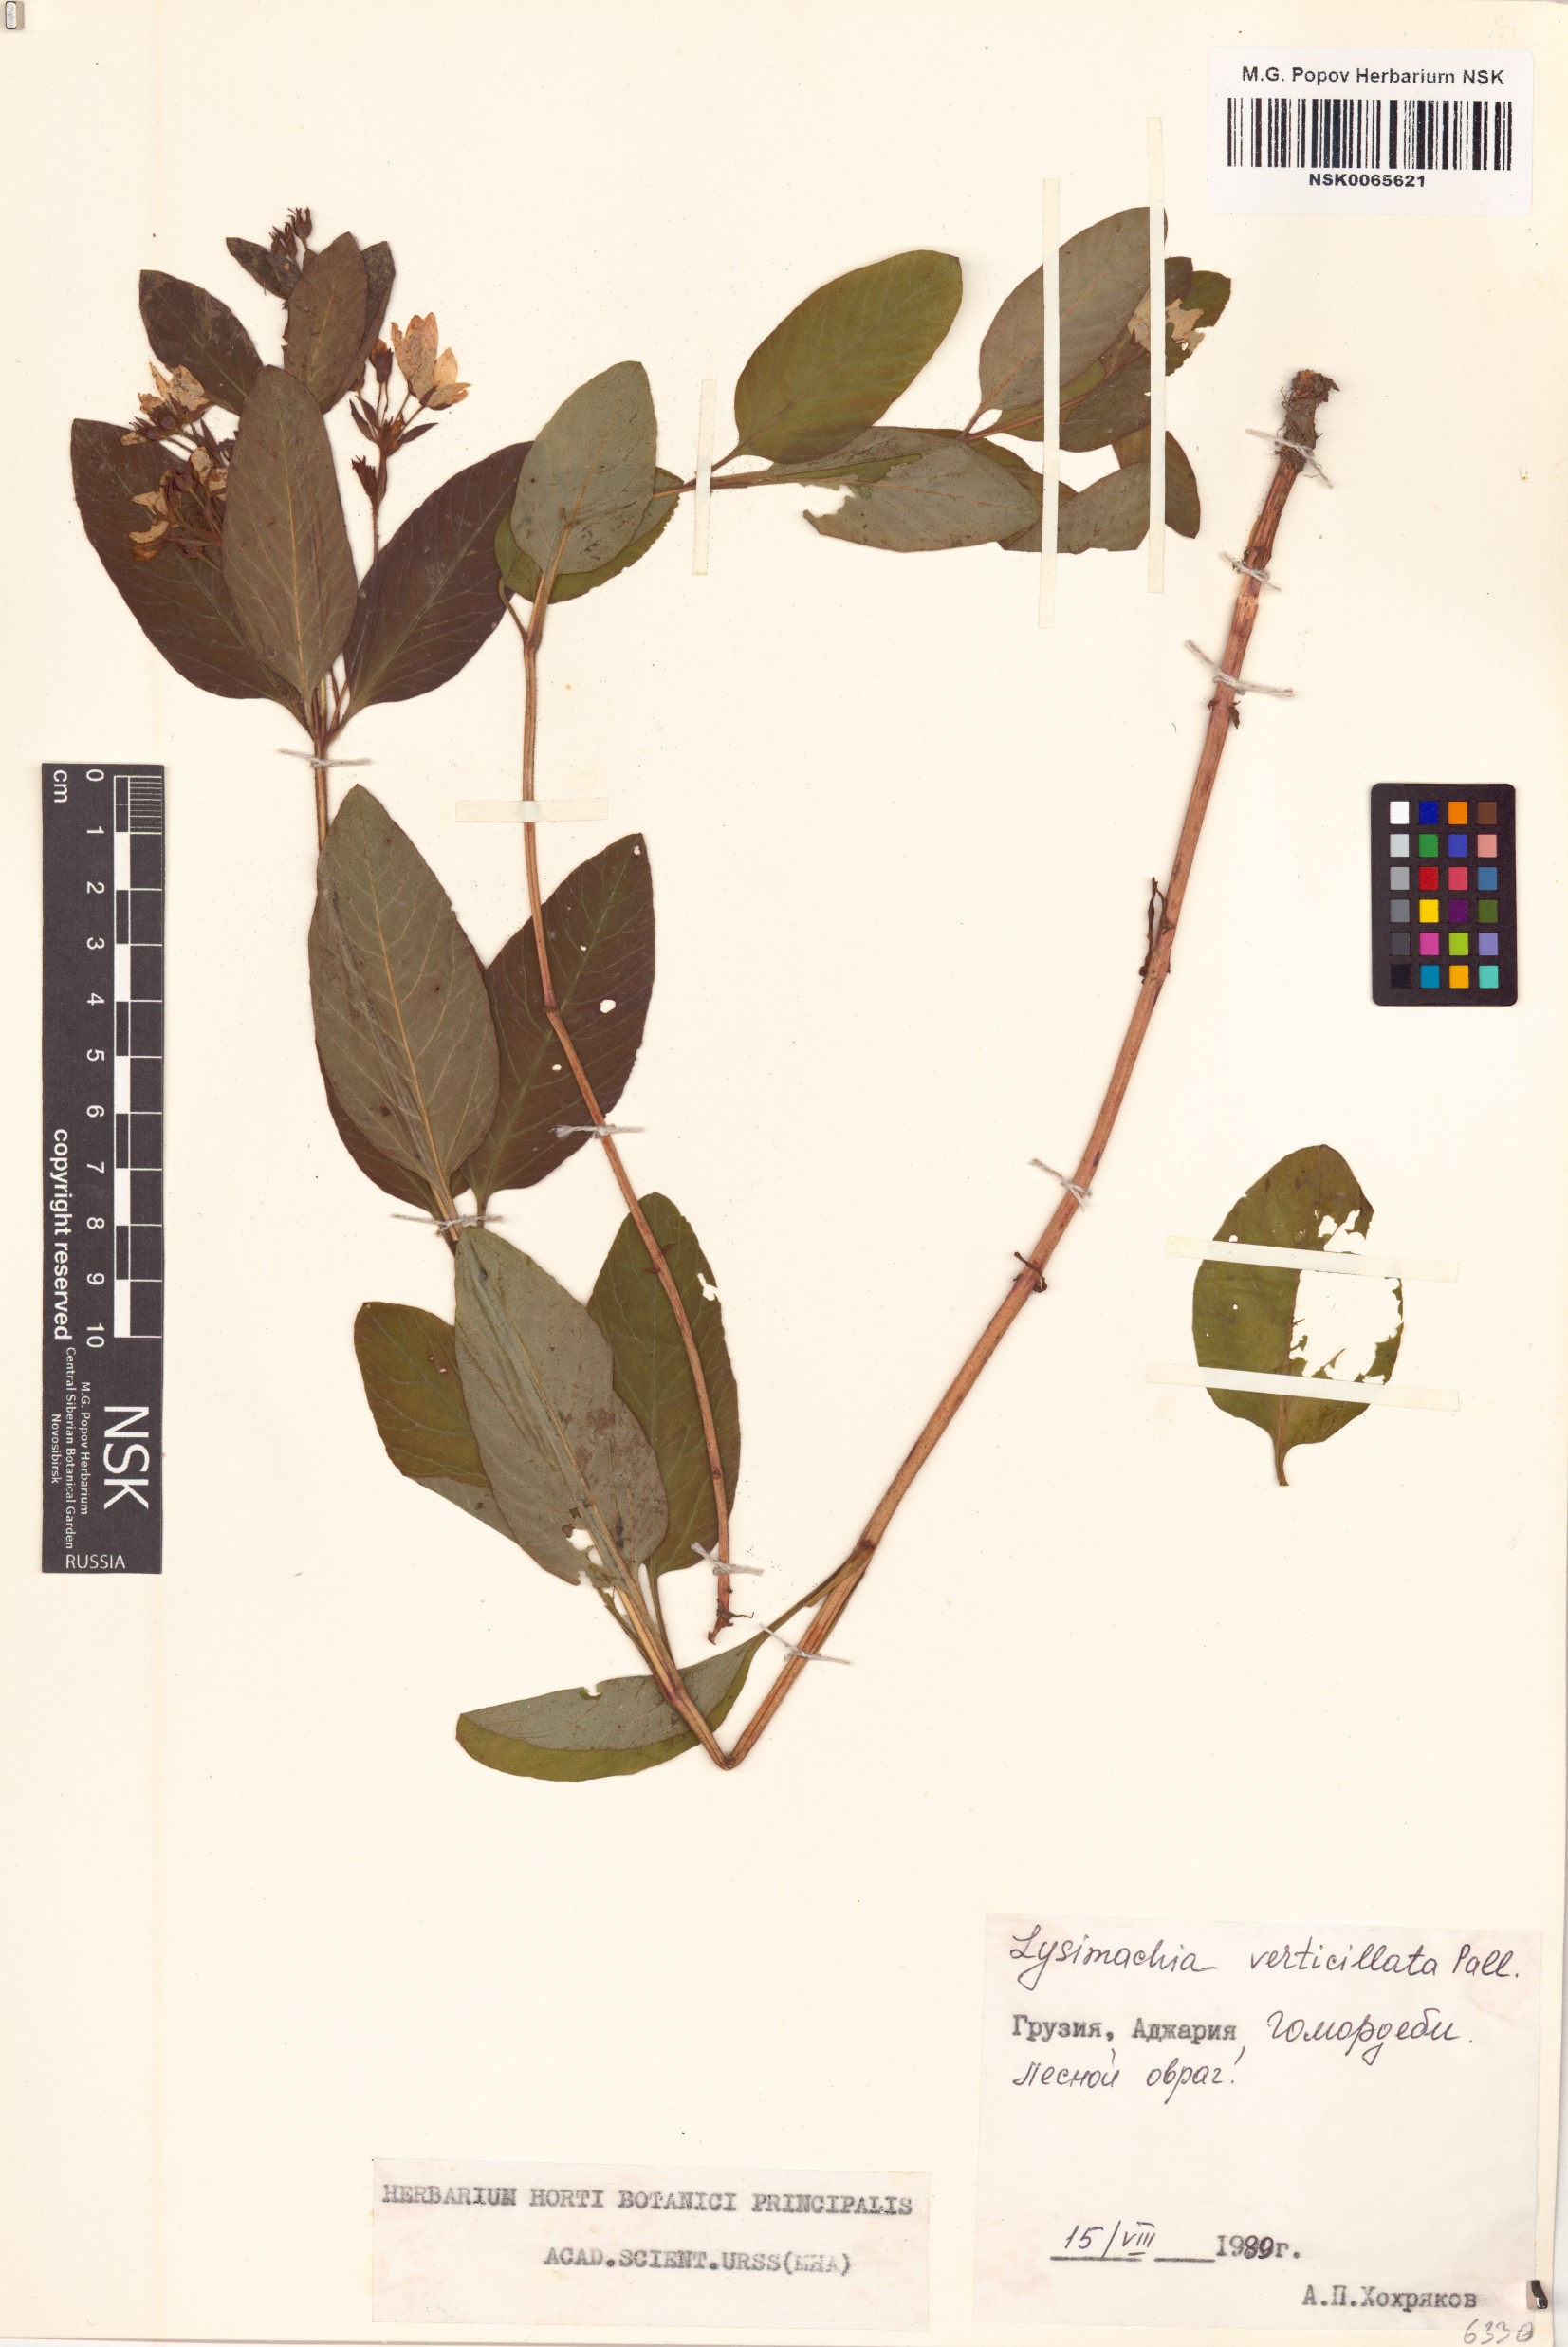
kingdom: Plantae
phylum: Tracheophyta
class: Magnoliopsida
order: Ericales
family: Primulaceae
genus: Lysimachia
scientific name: Lysimachia verticillaris
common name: Yellow loosestrife
